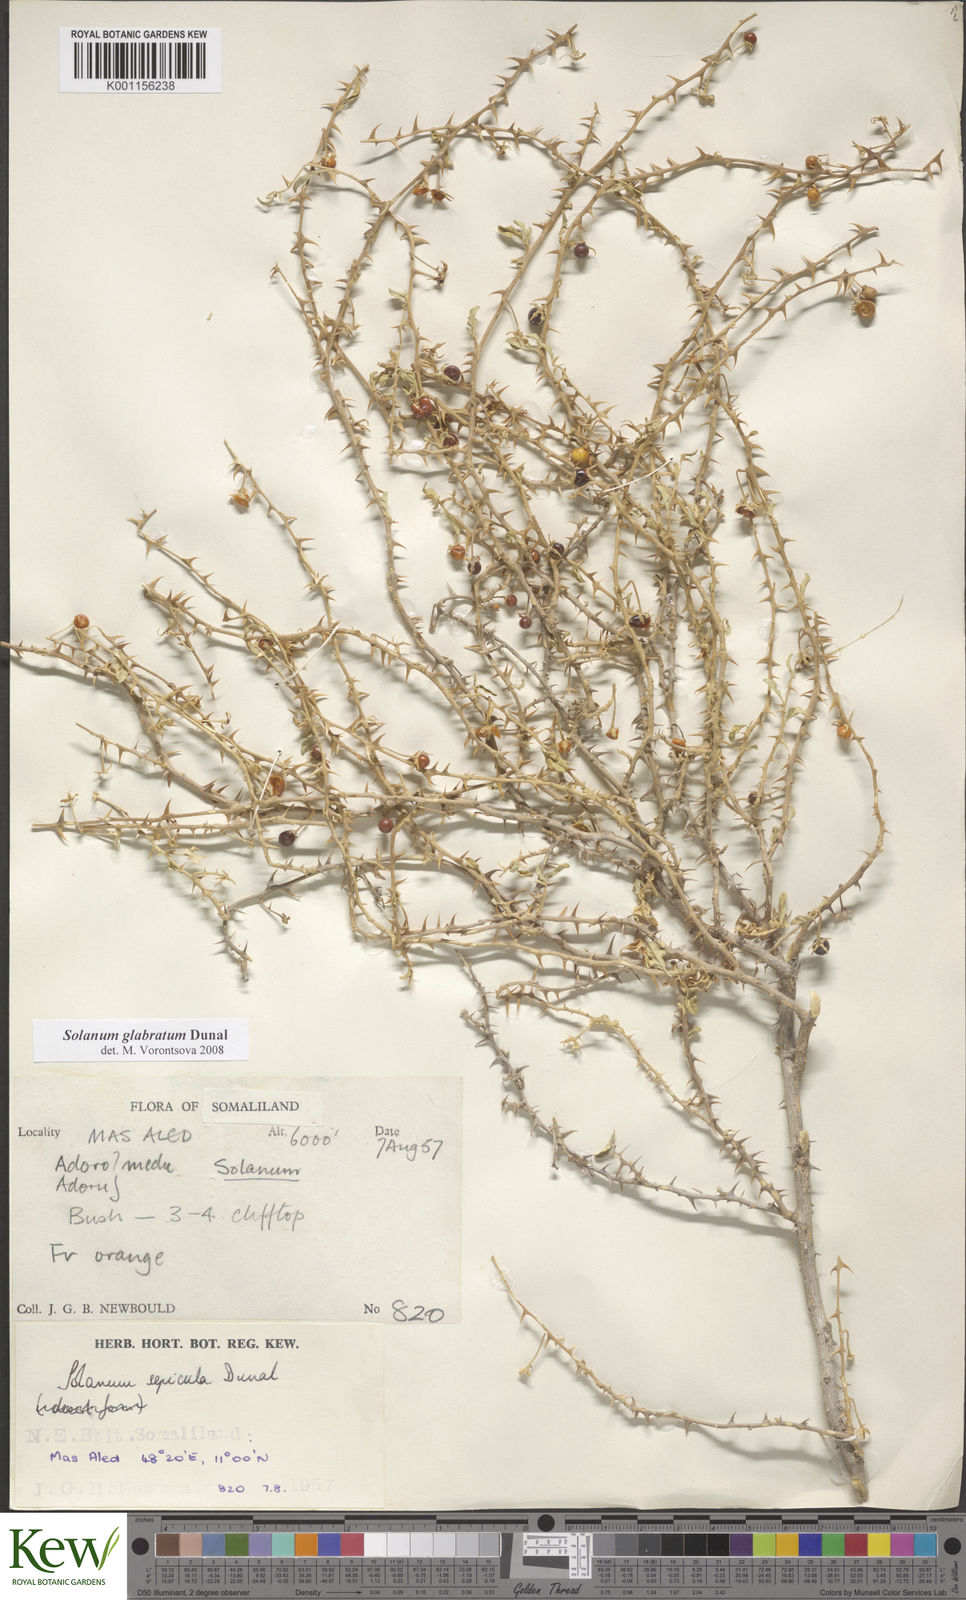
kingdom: Plantae
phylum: Tracheophyta
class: Magnoliopsida
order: Solanales
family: Solanaceae
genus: Solanum
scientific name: Solanum glabratum
